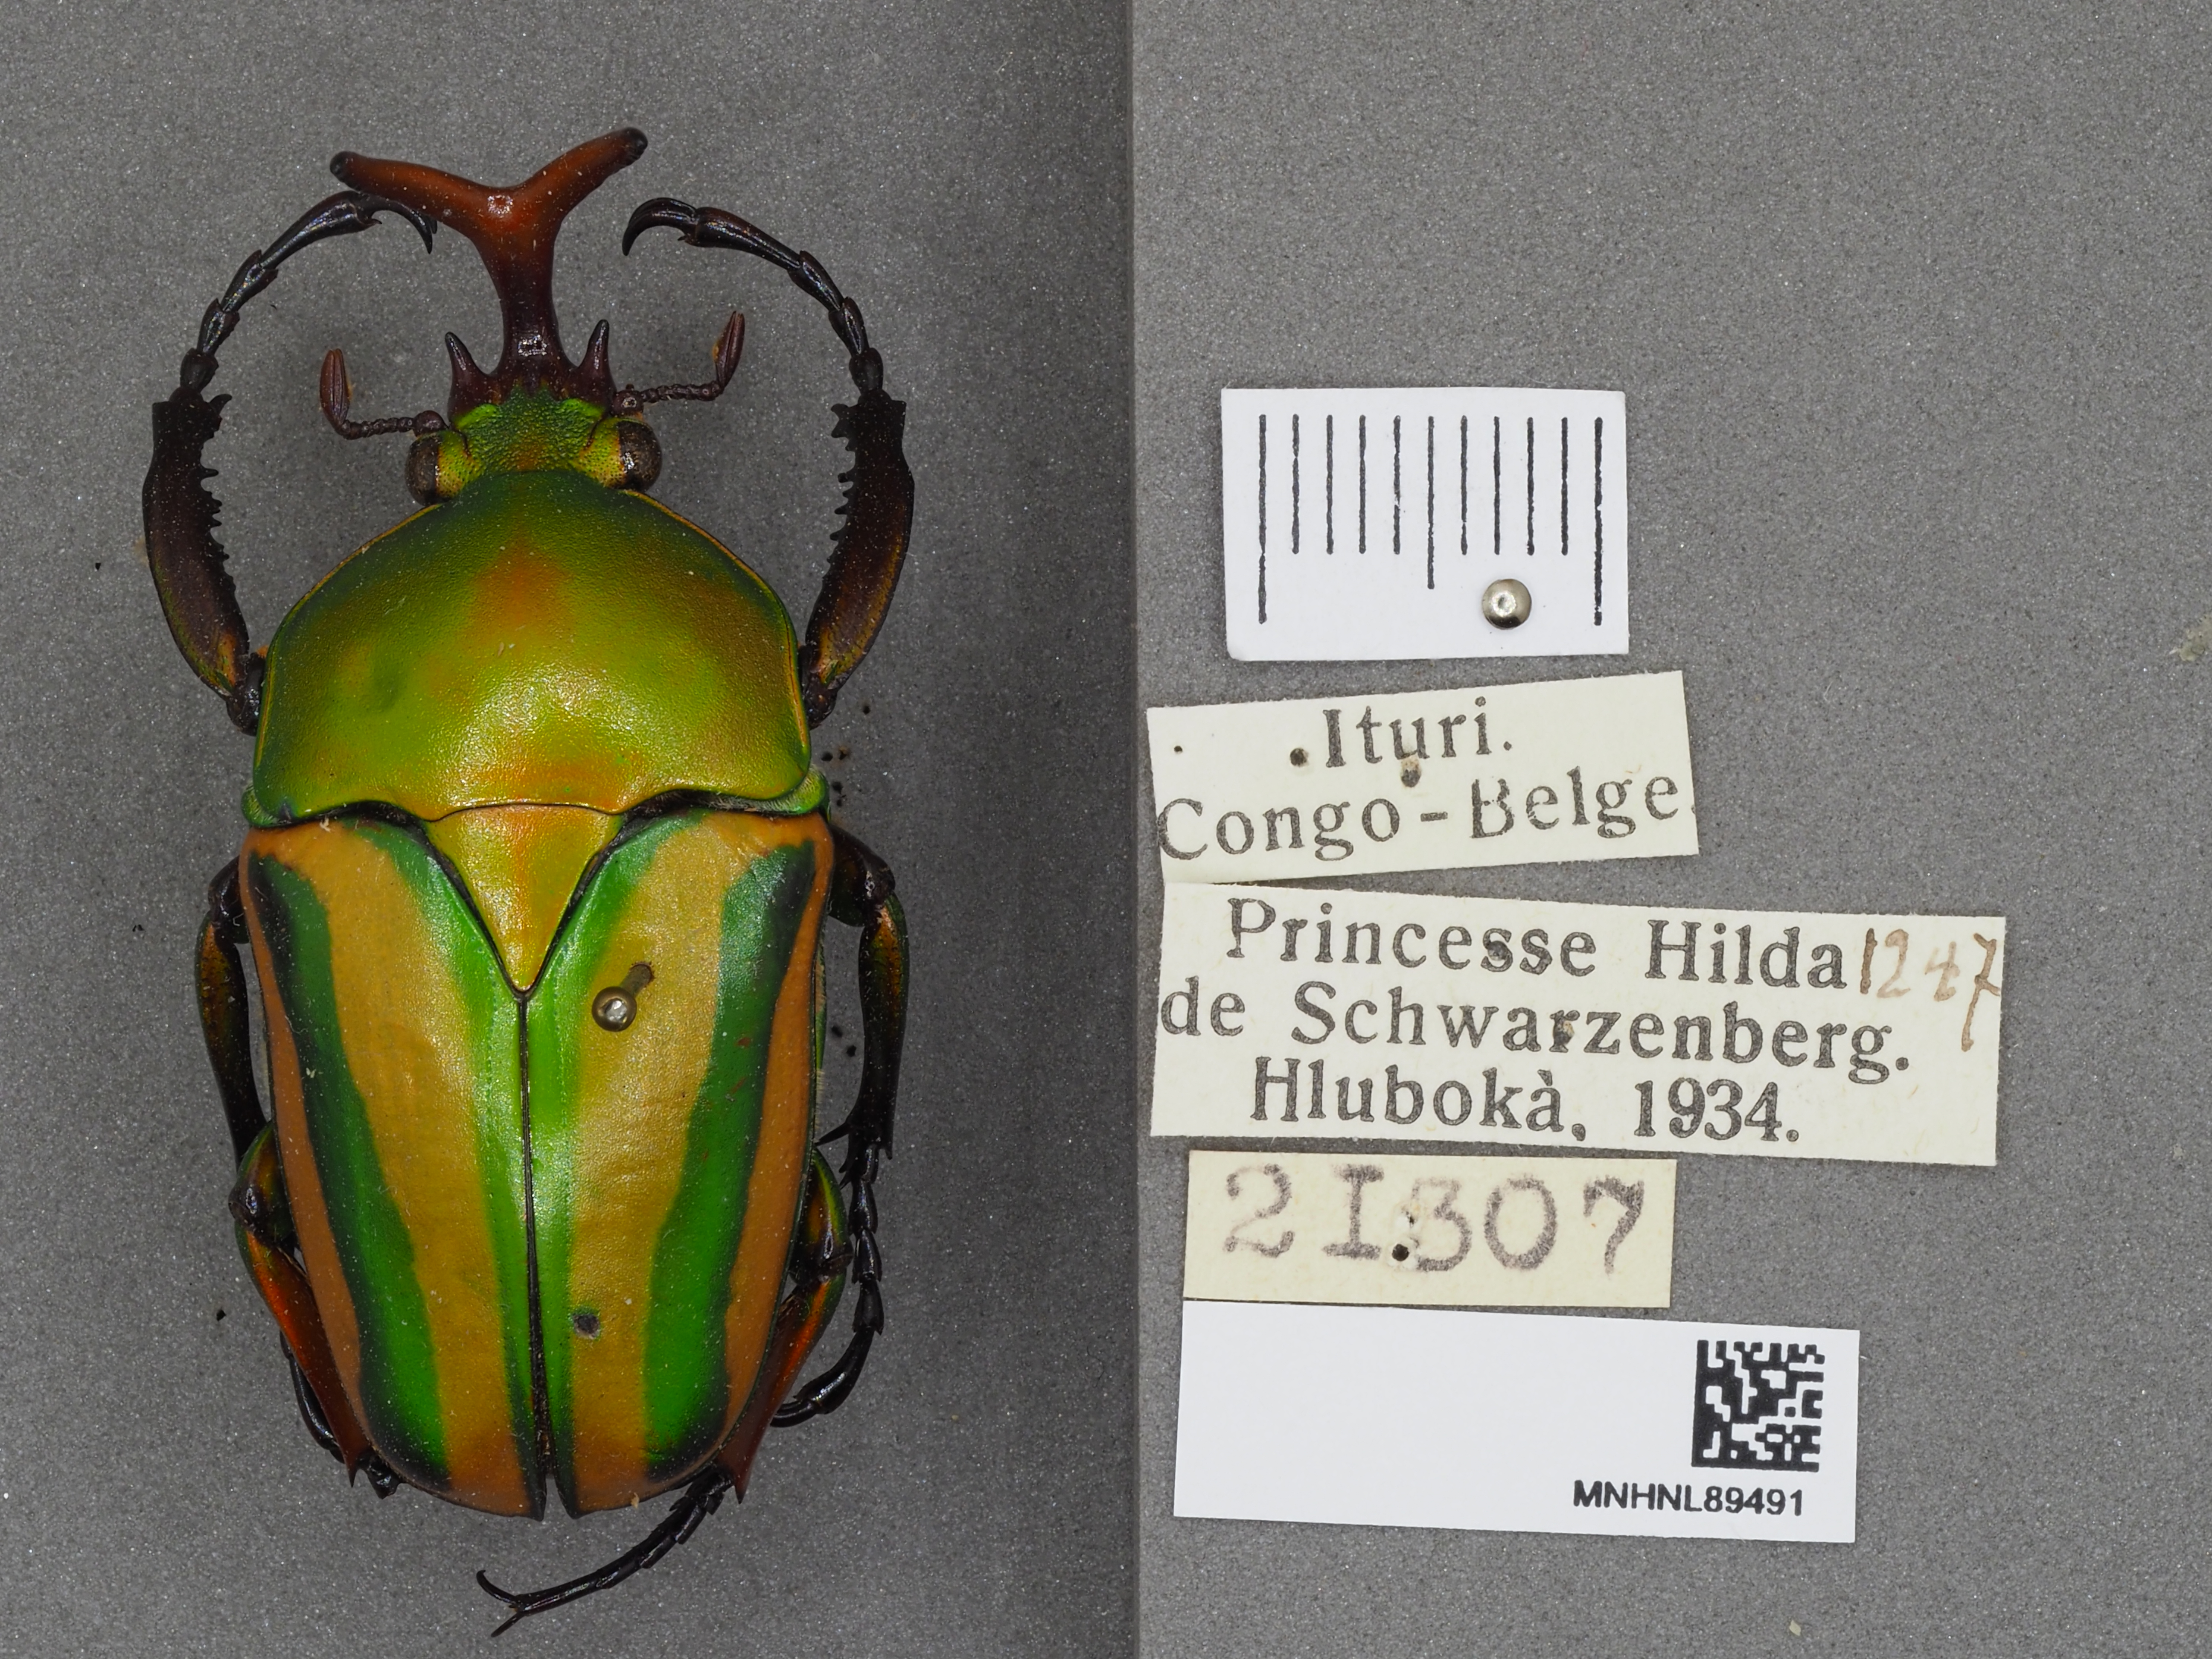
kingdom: Animalia
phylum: Arthropoda
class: Insecta
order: Coleoptera
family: Scarabaeidae
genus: Eudicella
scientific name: Eudicella gralli
